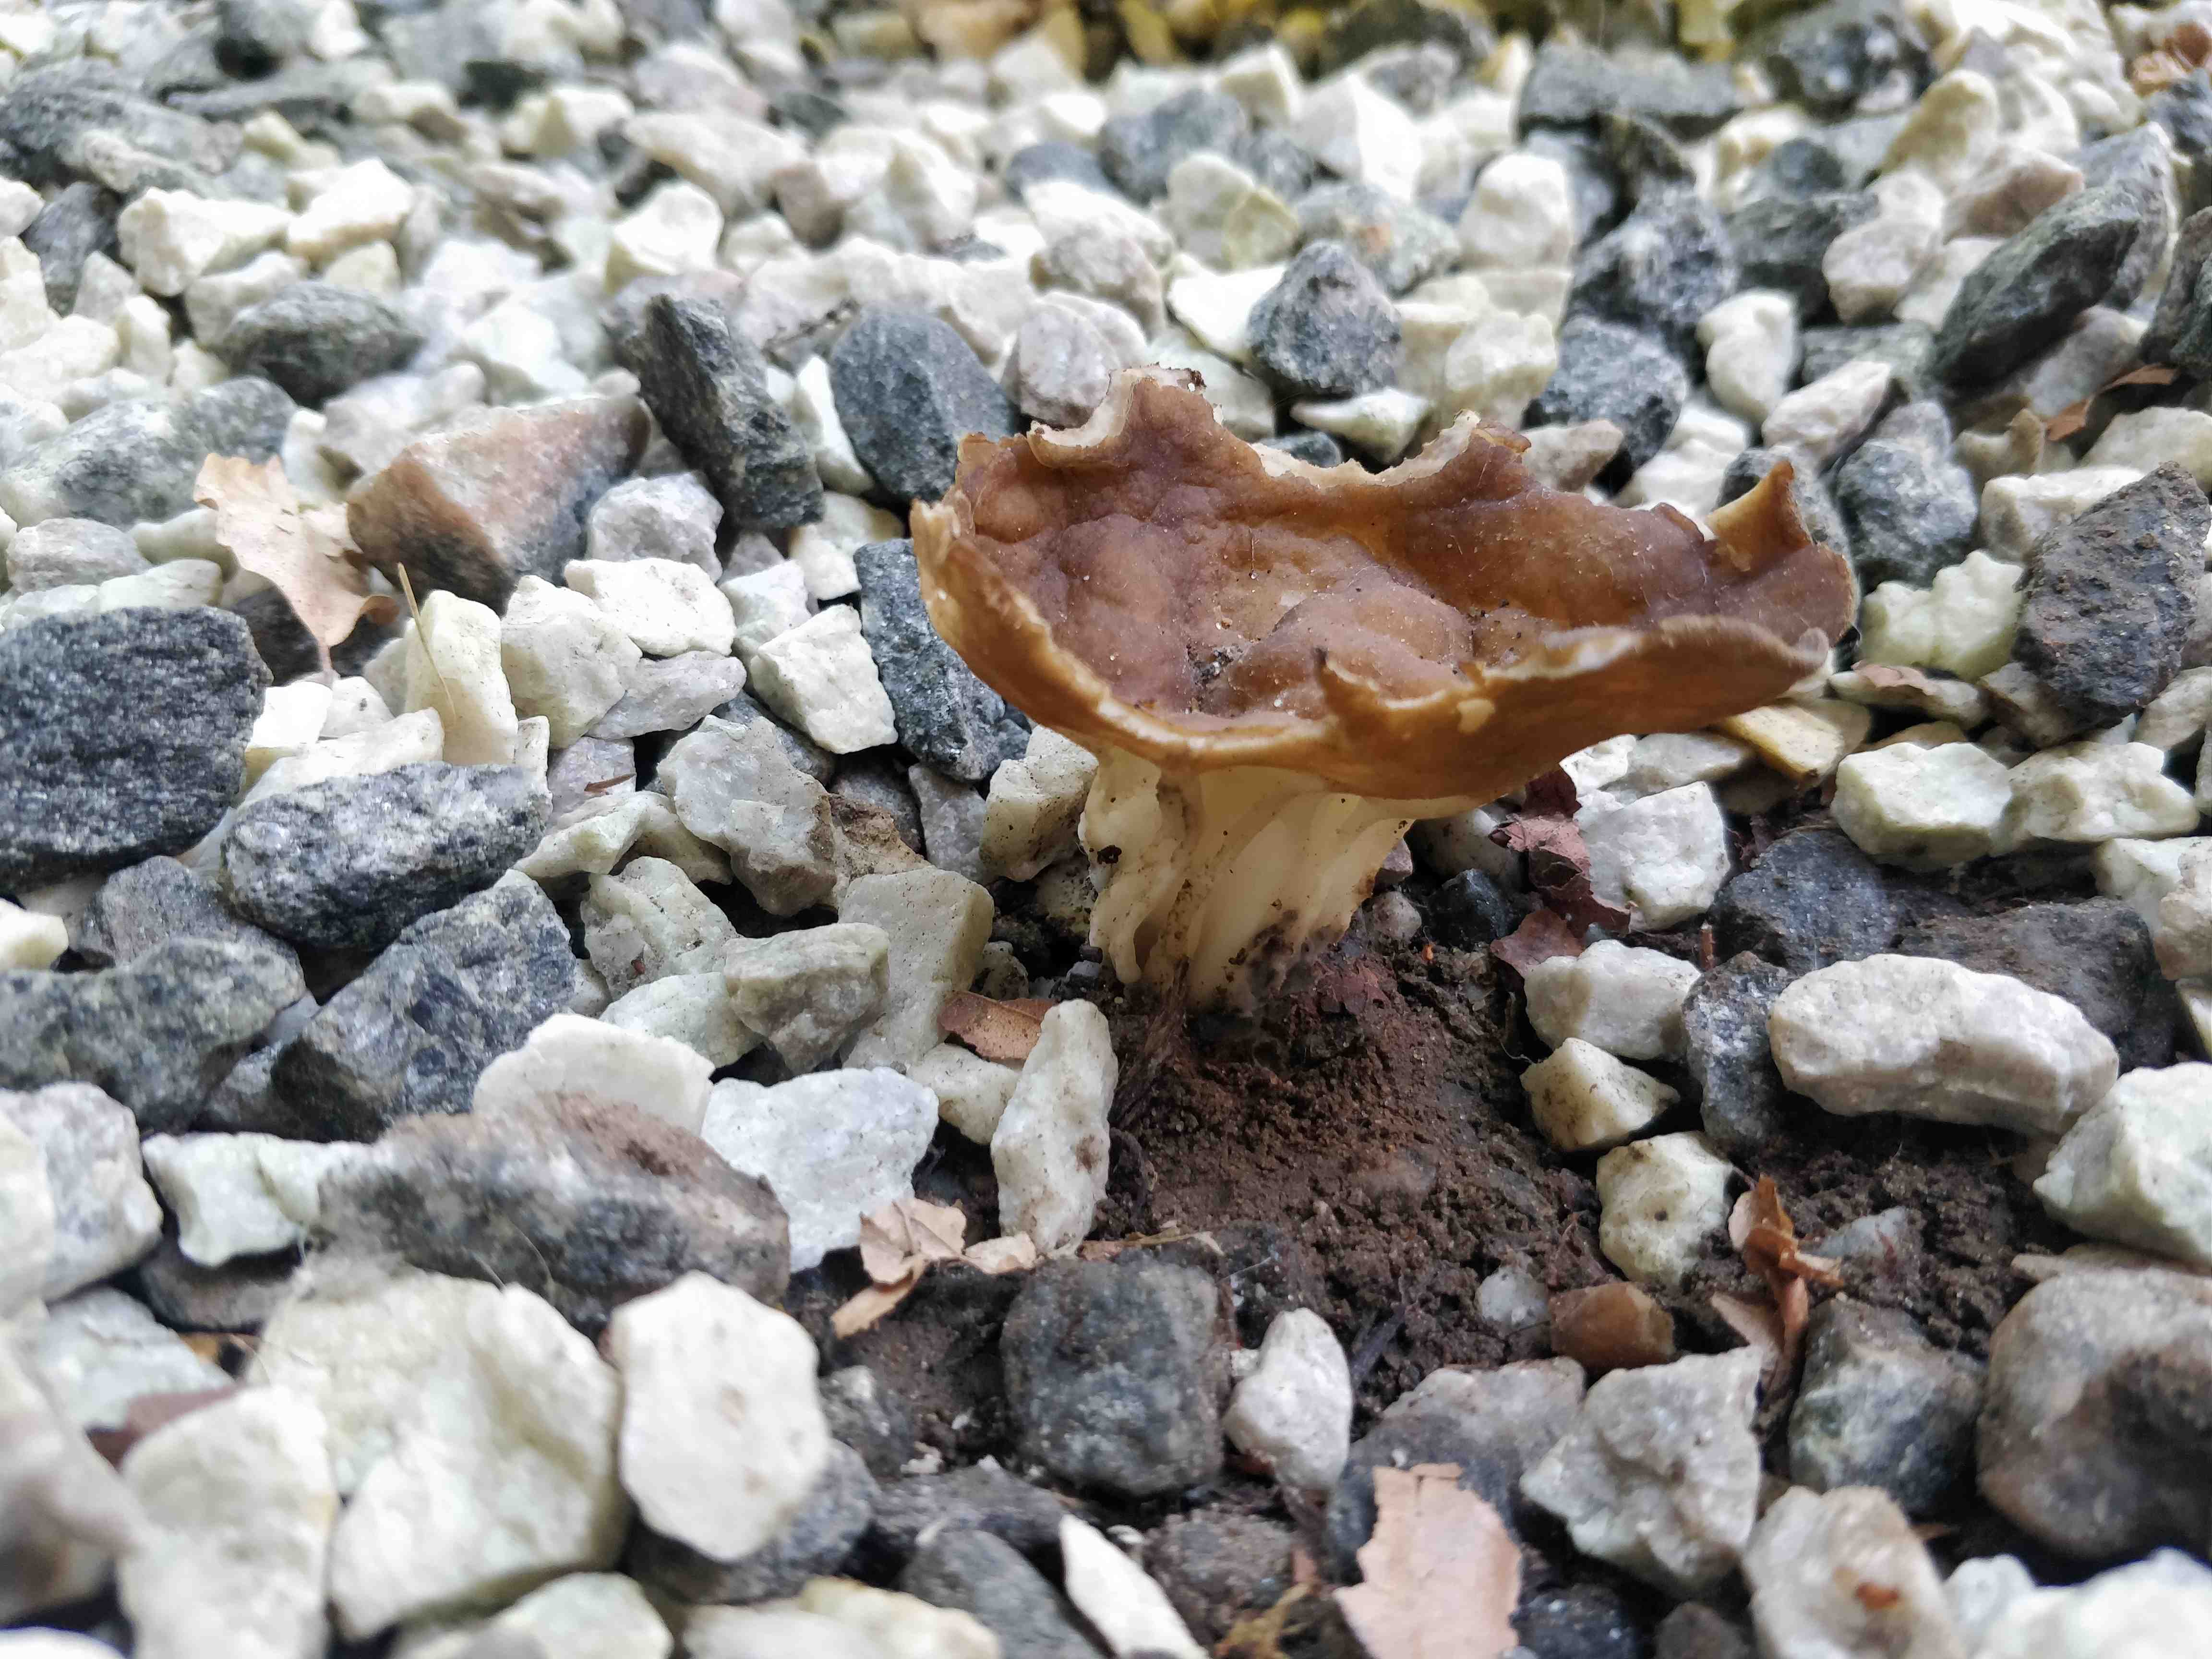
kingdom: Fungi
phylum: Ascomycota
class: Pezizomycetes
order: Pezizales
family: Helvellaceae
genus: Helvella
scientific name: Helvella acetabulum
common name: pokal-foldhat
